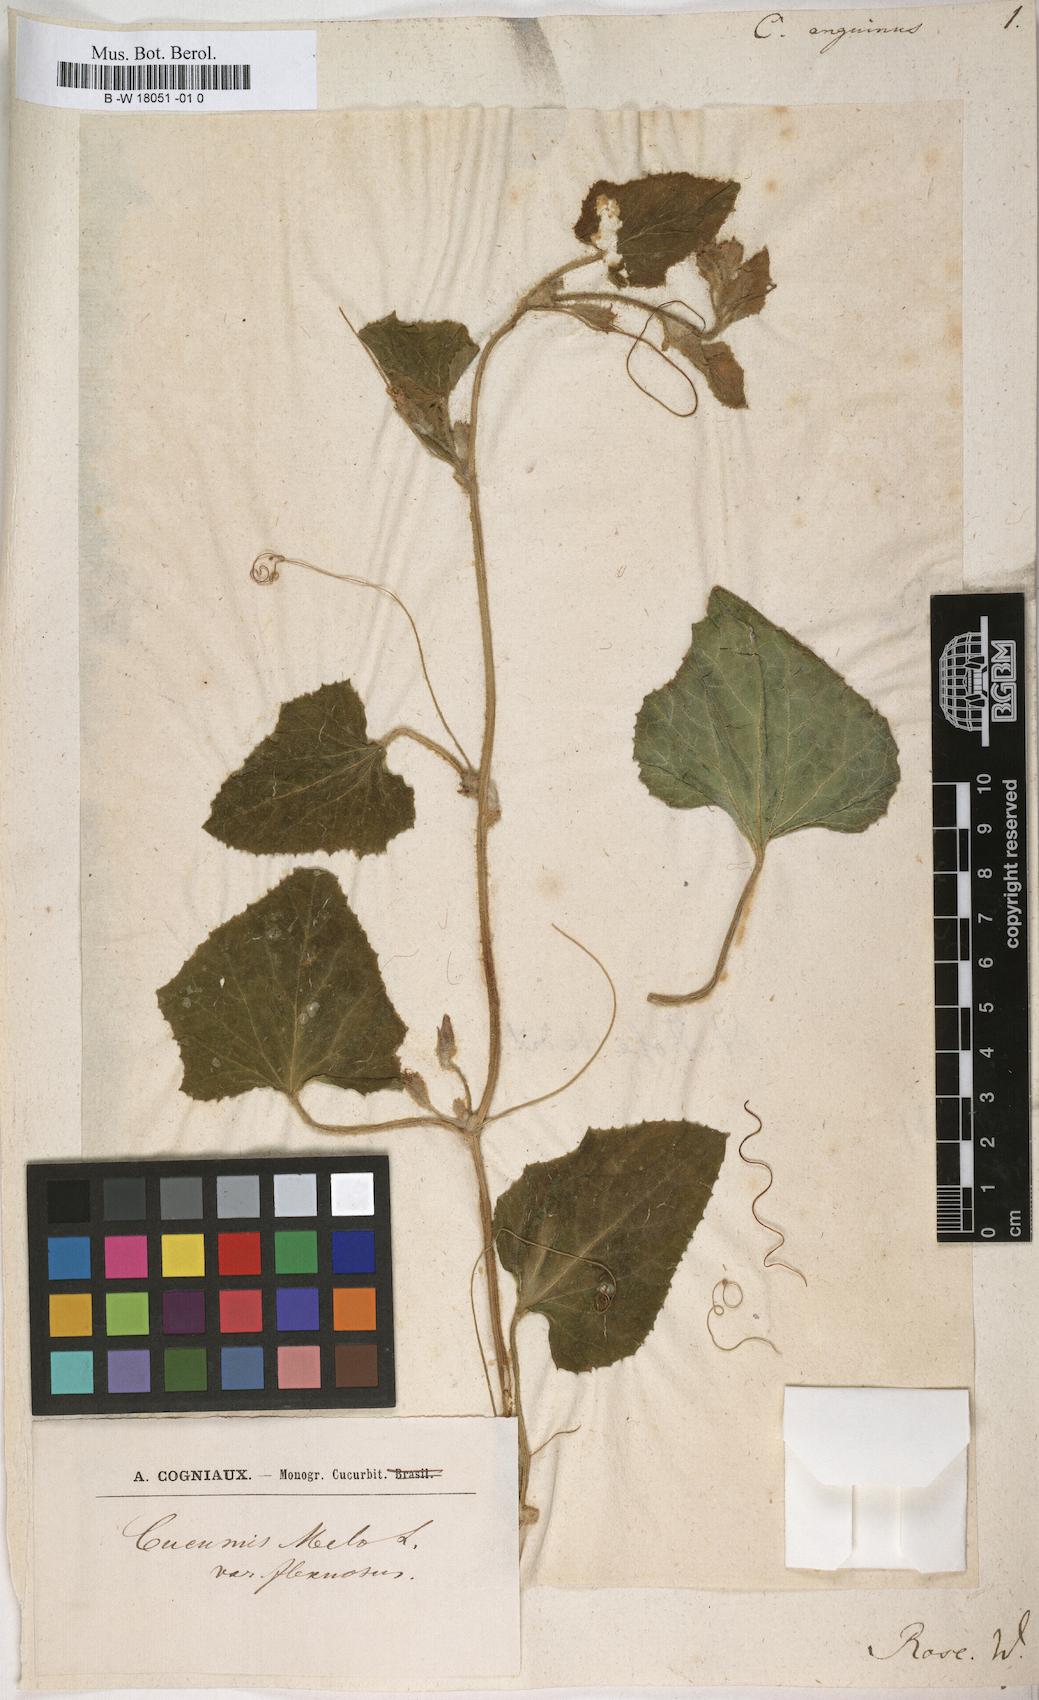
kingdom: Plantae
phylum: Tracheophyta
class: Magnoliopsida
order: Cucurbitales
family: Cucurbitaceae
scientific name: Cucurbitaceae
